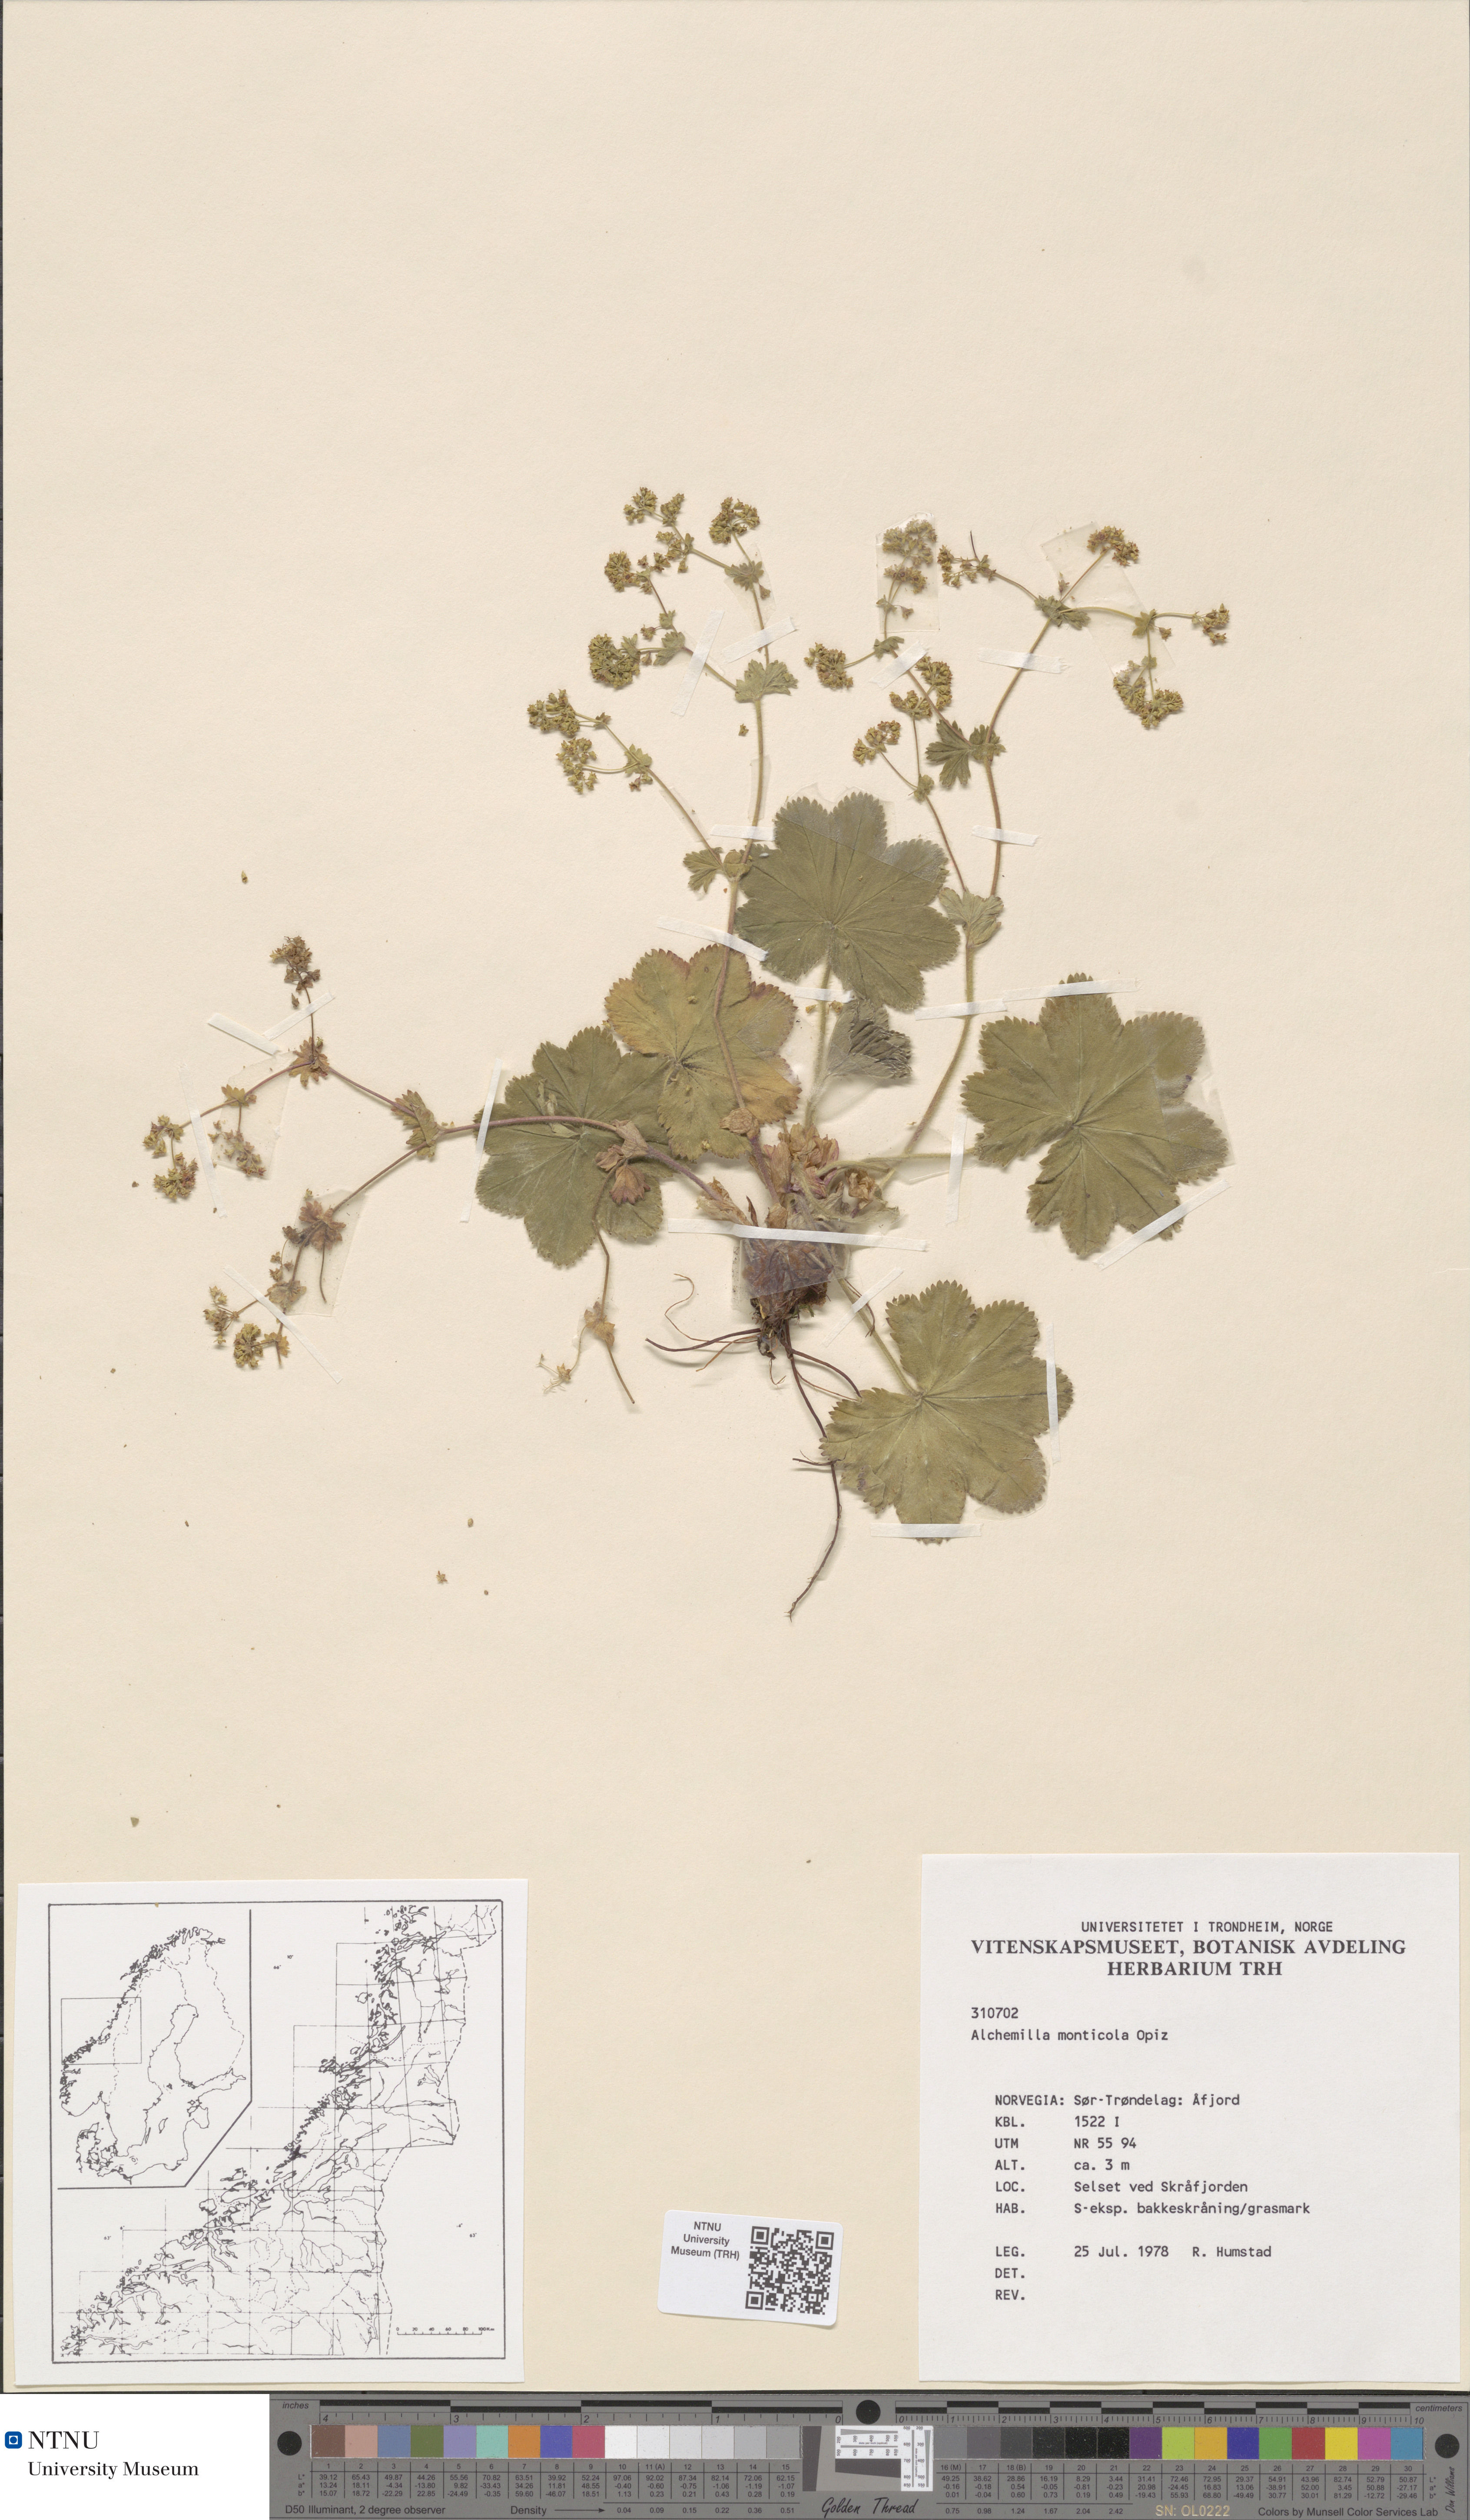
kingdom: Plantae
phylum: Tracheophyta
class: Magnoliopsida
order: Rosales
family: Rosaceae
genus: Alchemilla
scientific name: Alchemilla monticola
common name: Hairy lady's mantle
